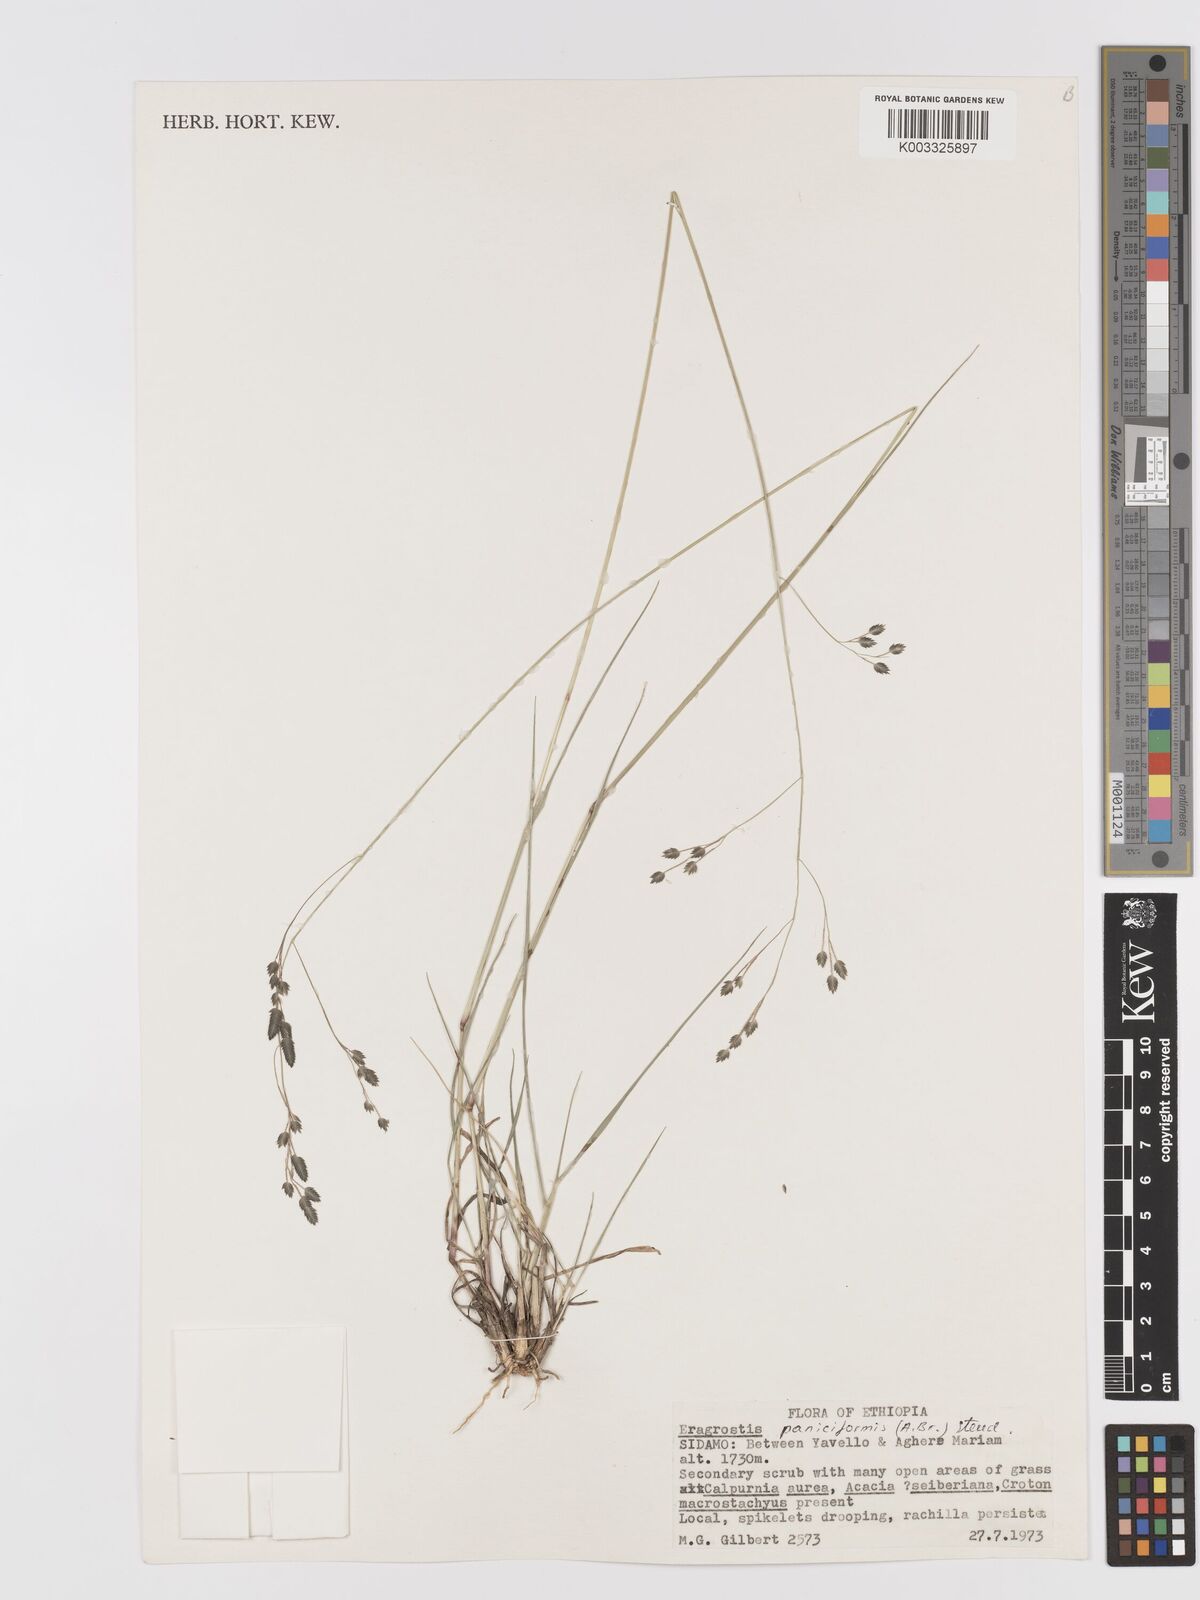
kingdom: Plantae
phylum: Tracheophyta
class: Liliopsida
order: Poales
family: Poaceae
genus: Eragrostis
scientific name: Eragrostis paniciformis
